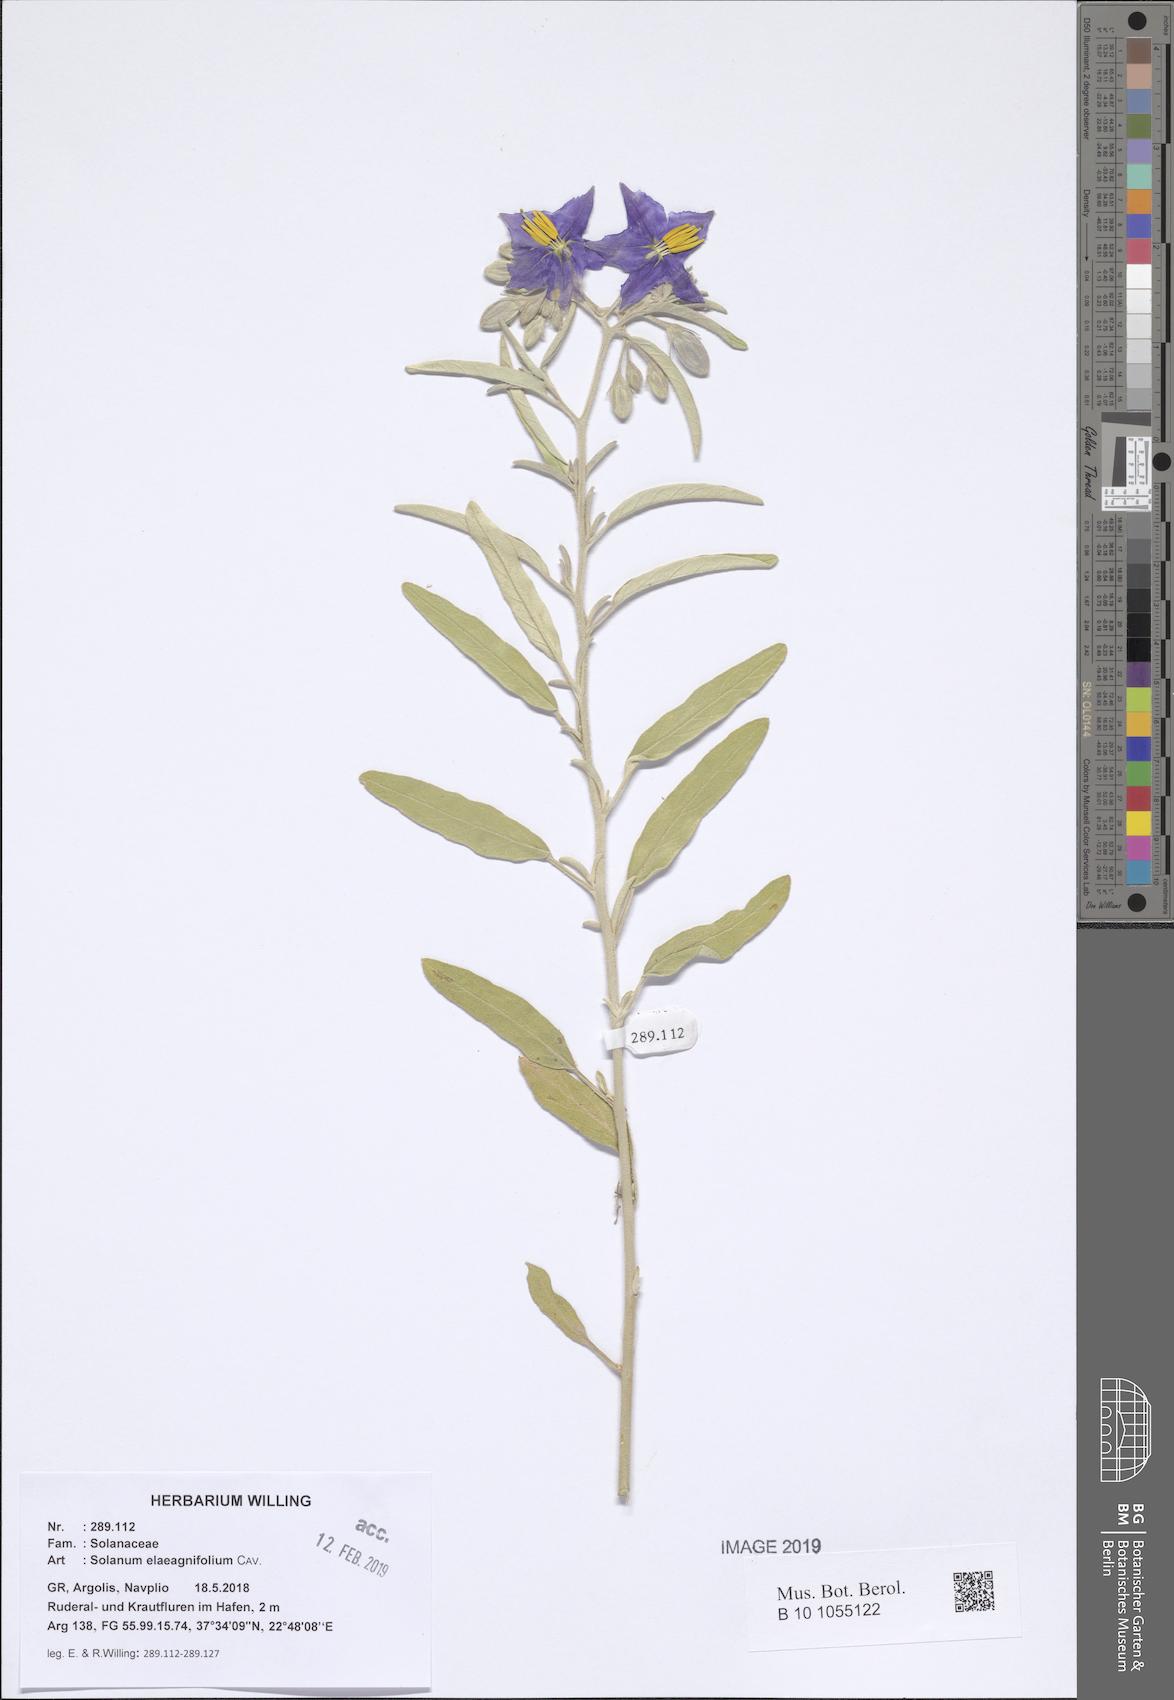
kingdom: Plantae
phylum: Tracheophyta
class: Magnoliopsida
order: Solanales
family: Solanaceae
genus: Solanum
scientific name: Solanum elaeagnifolium
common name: Silverleaf nightshade
